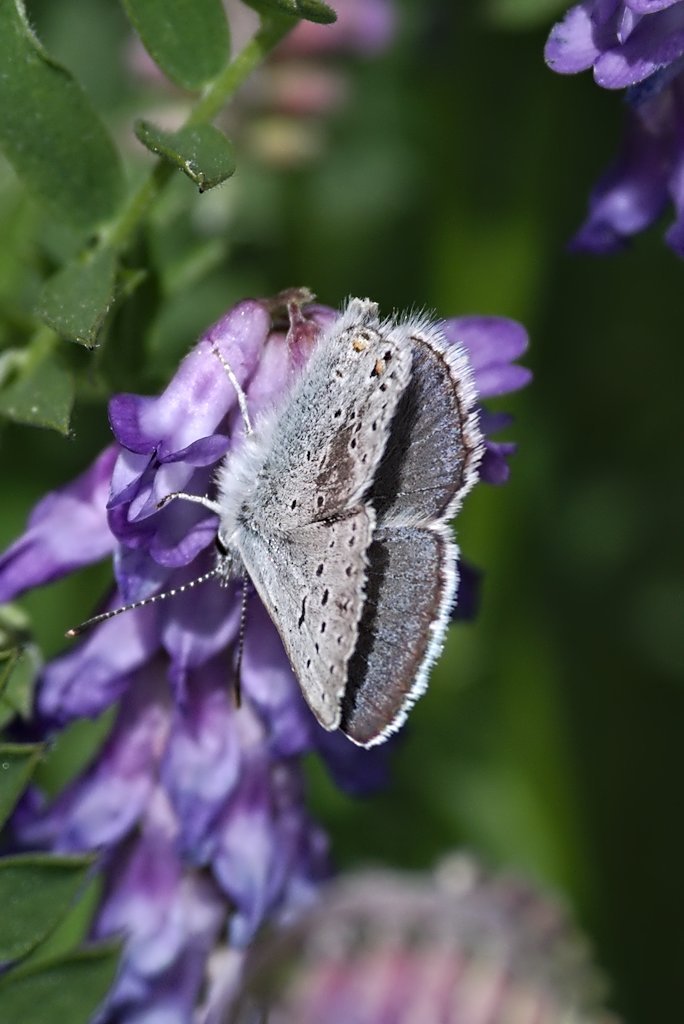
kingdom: Animalia
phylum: Arthropoda
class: Insecta
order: Lepidoptera
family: Lycaenidae
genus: Plebejus
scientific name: Plebejus saepiolus
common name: Greenish Blue
